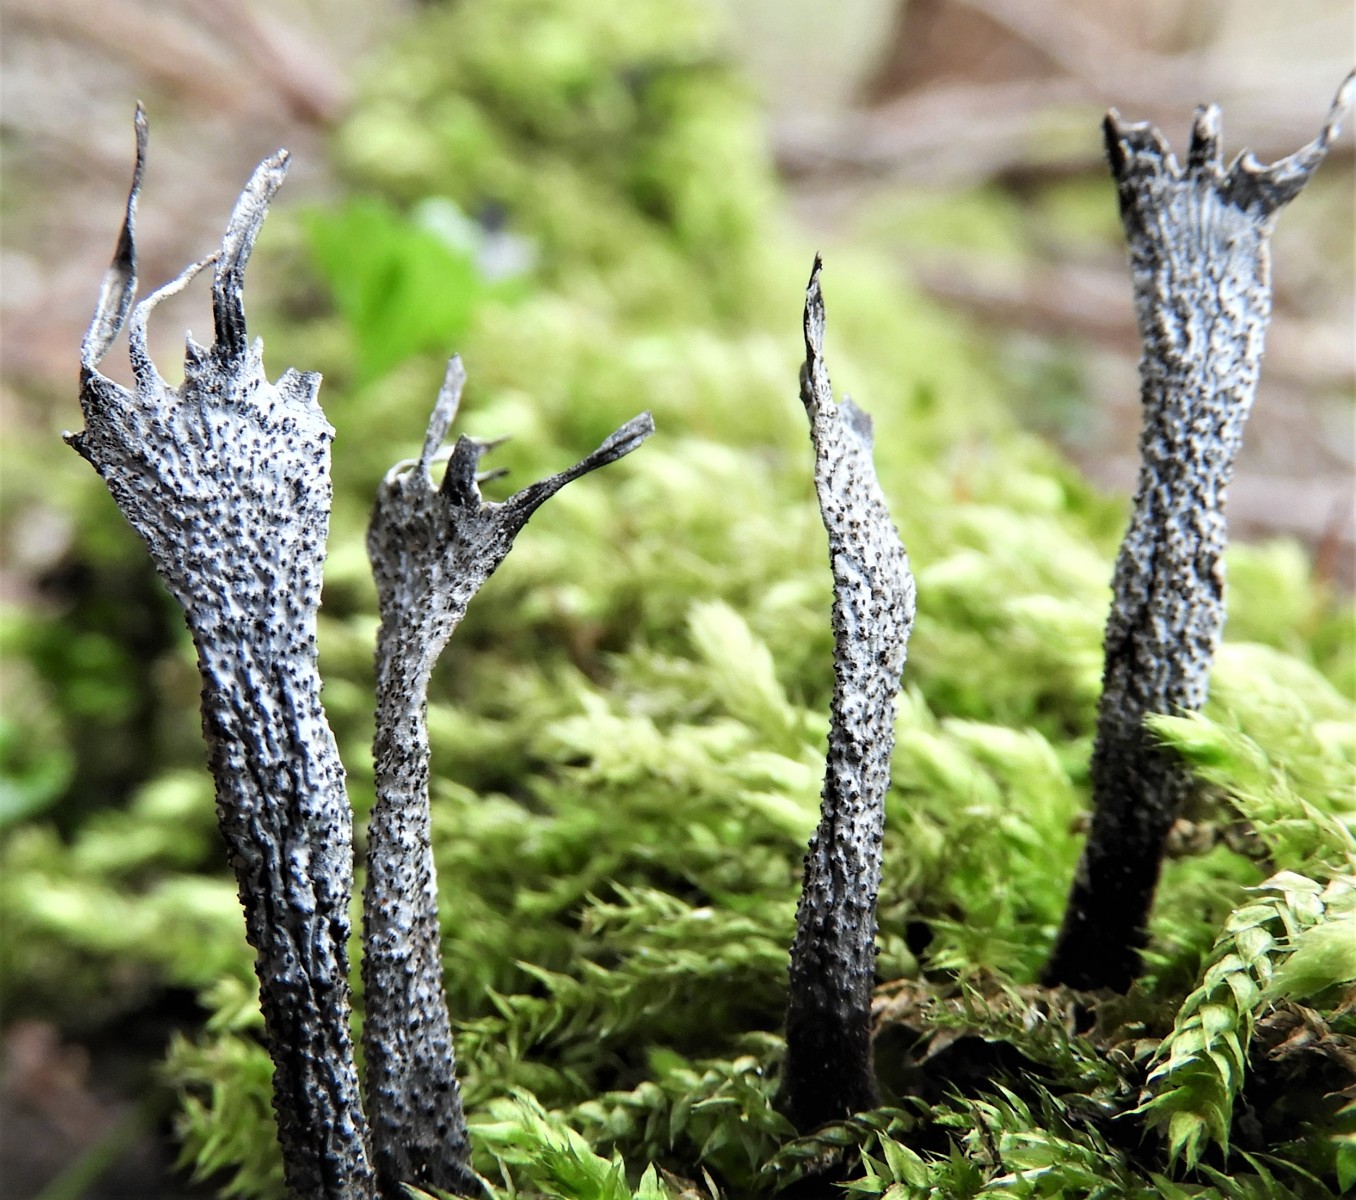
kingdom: Fungi
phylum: Ascomycota
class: Sordariomycetes
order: Xylariales
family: Xylariaceae
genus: Xylaria
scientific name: Xylaria hypoxylon
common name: grenet stødsvamp
